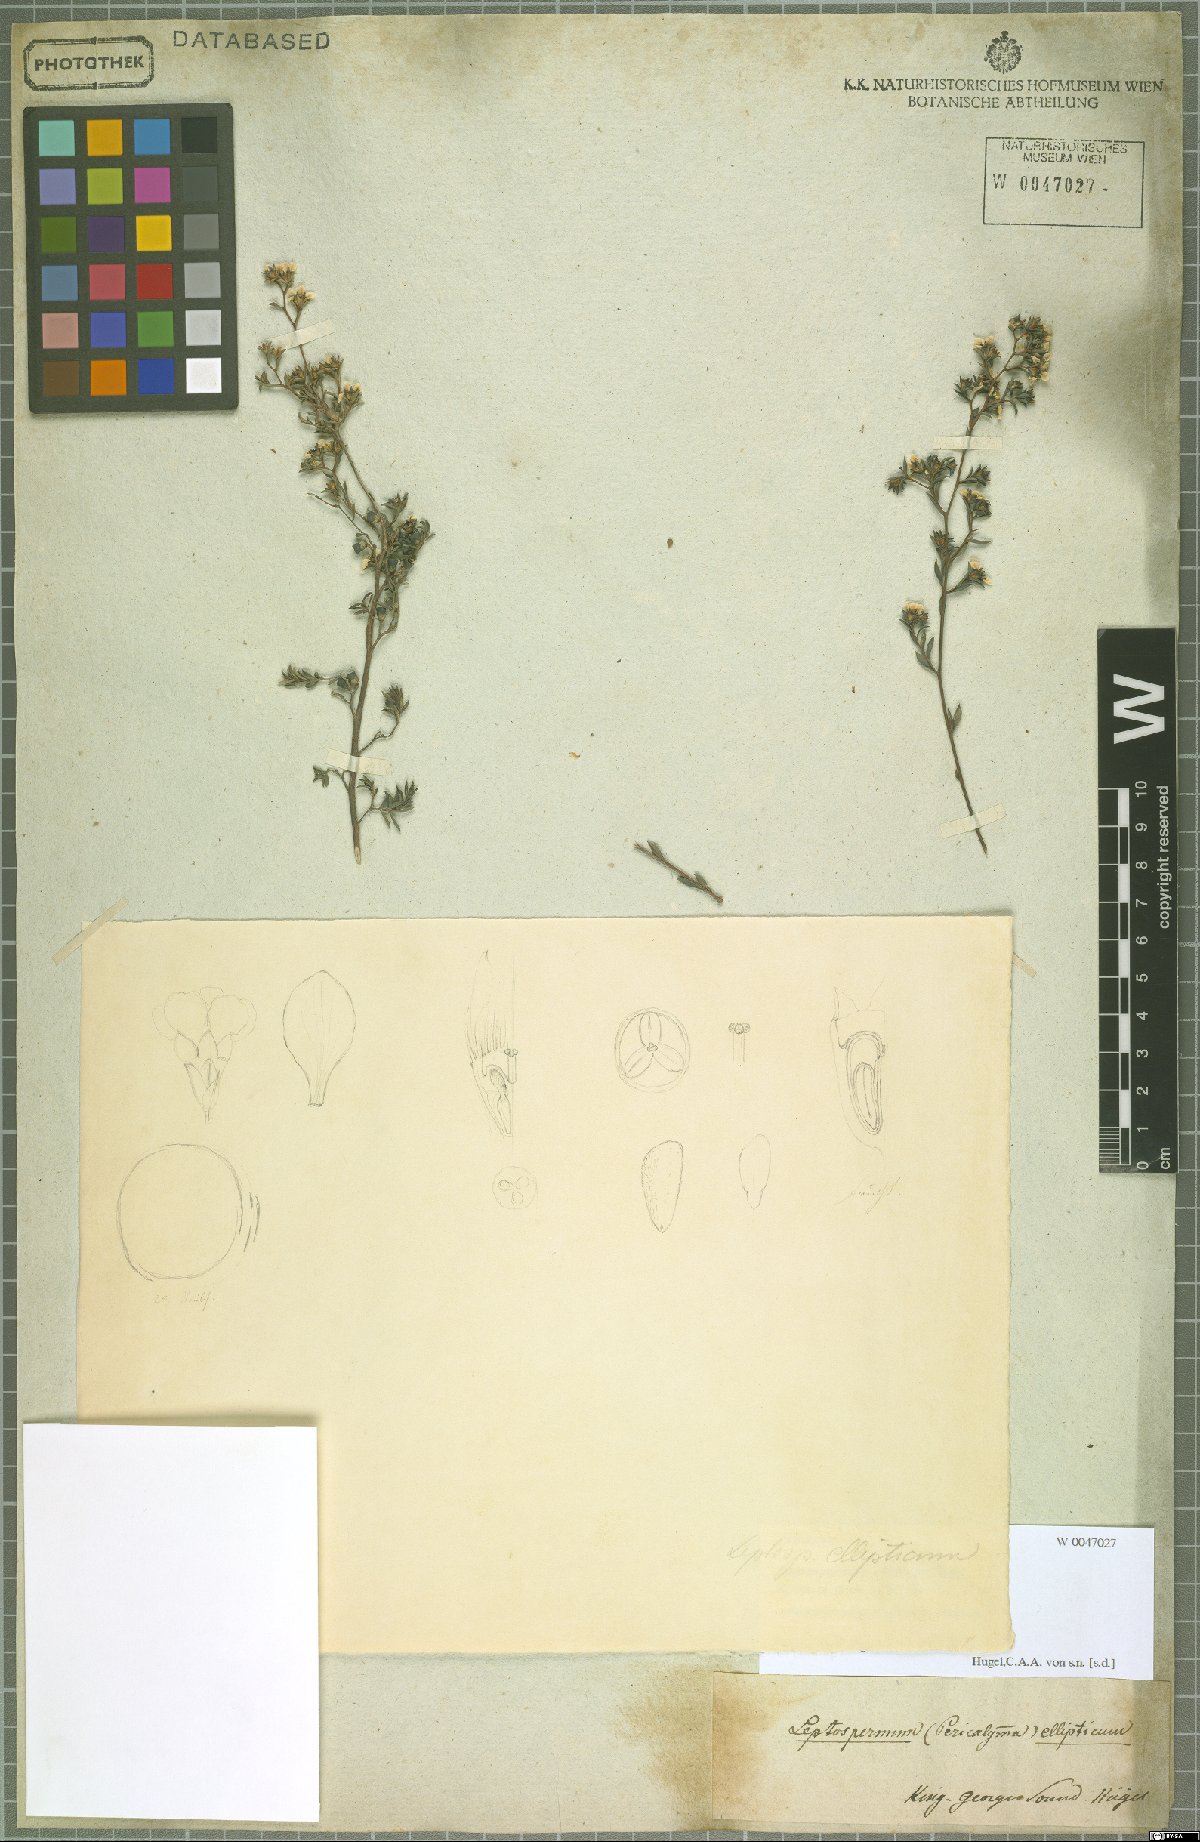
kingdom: Plantae
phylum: Tracheophyta
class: Magnoliopsida
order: Myrtales
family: Myrtaceae
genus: Pericalymma
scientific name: Pericalymma ellipticum
